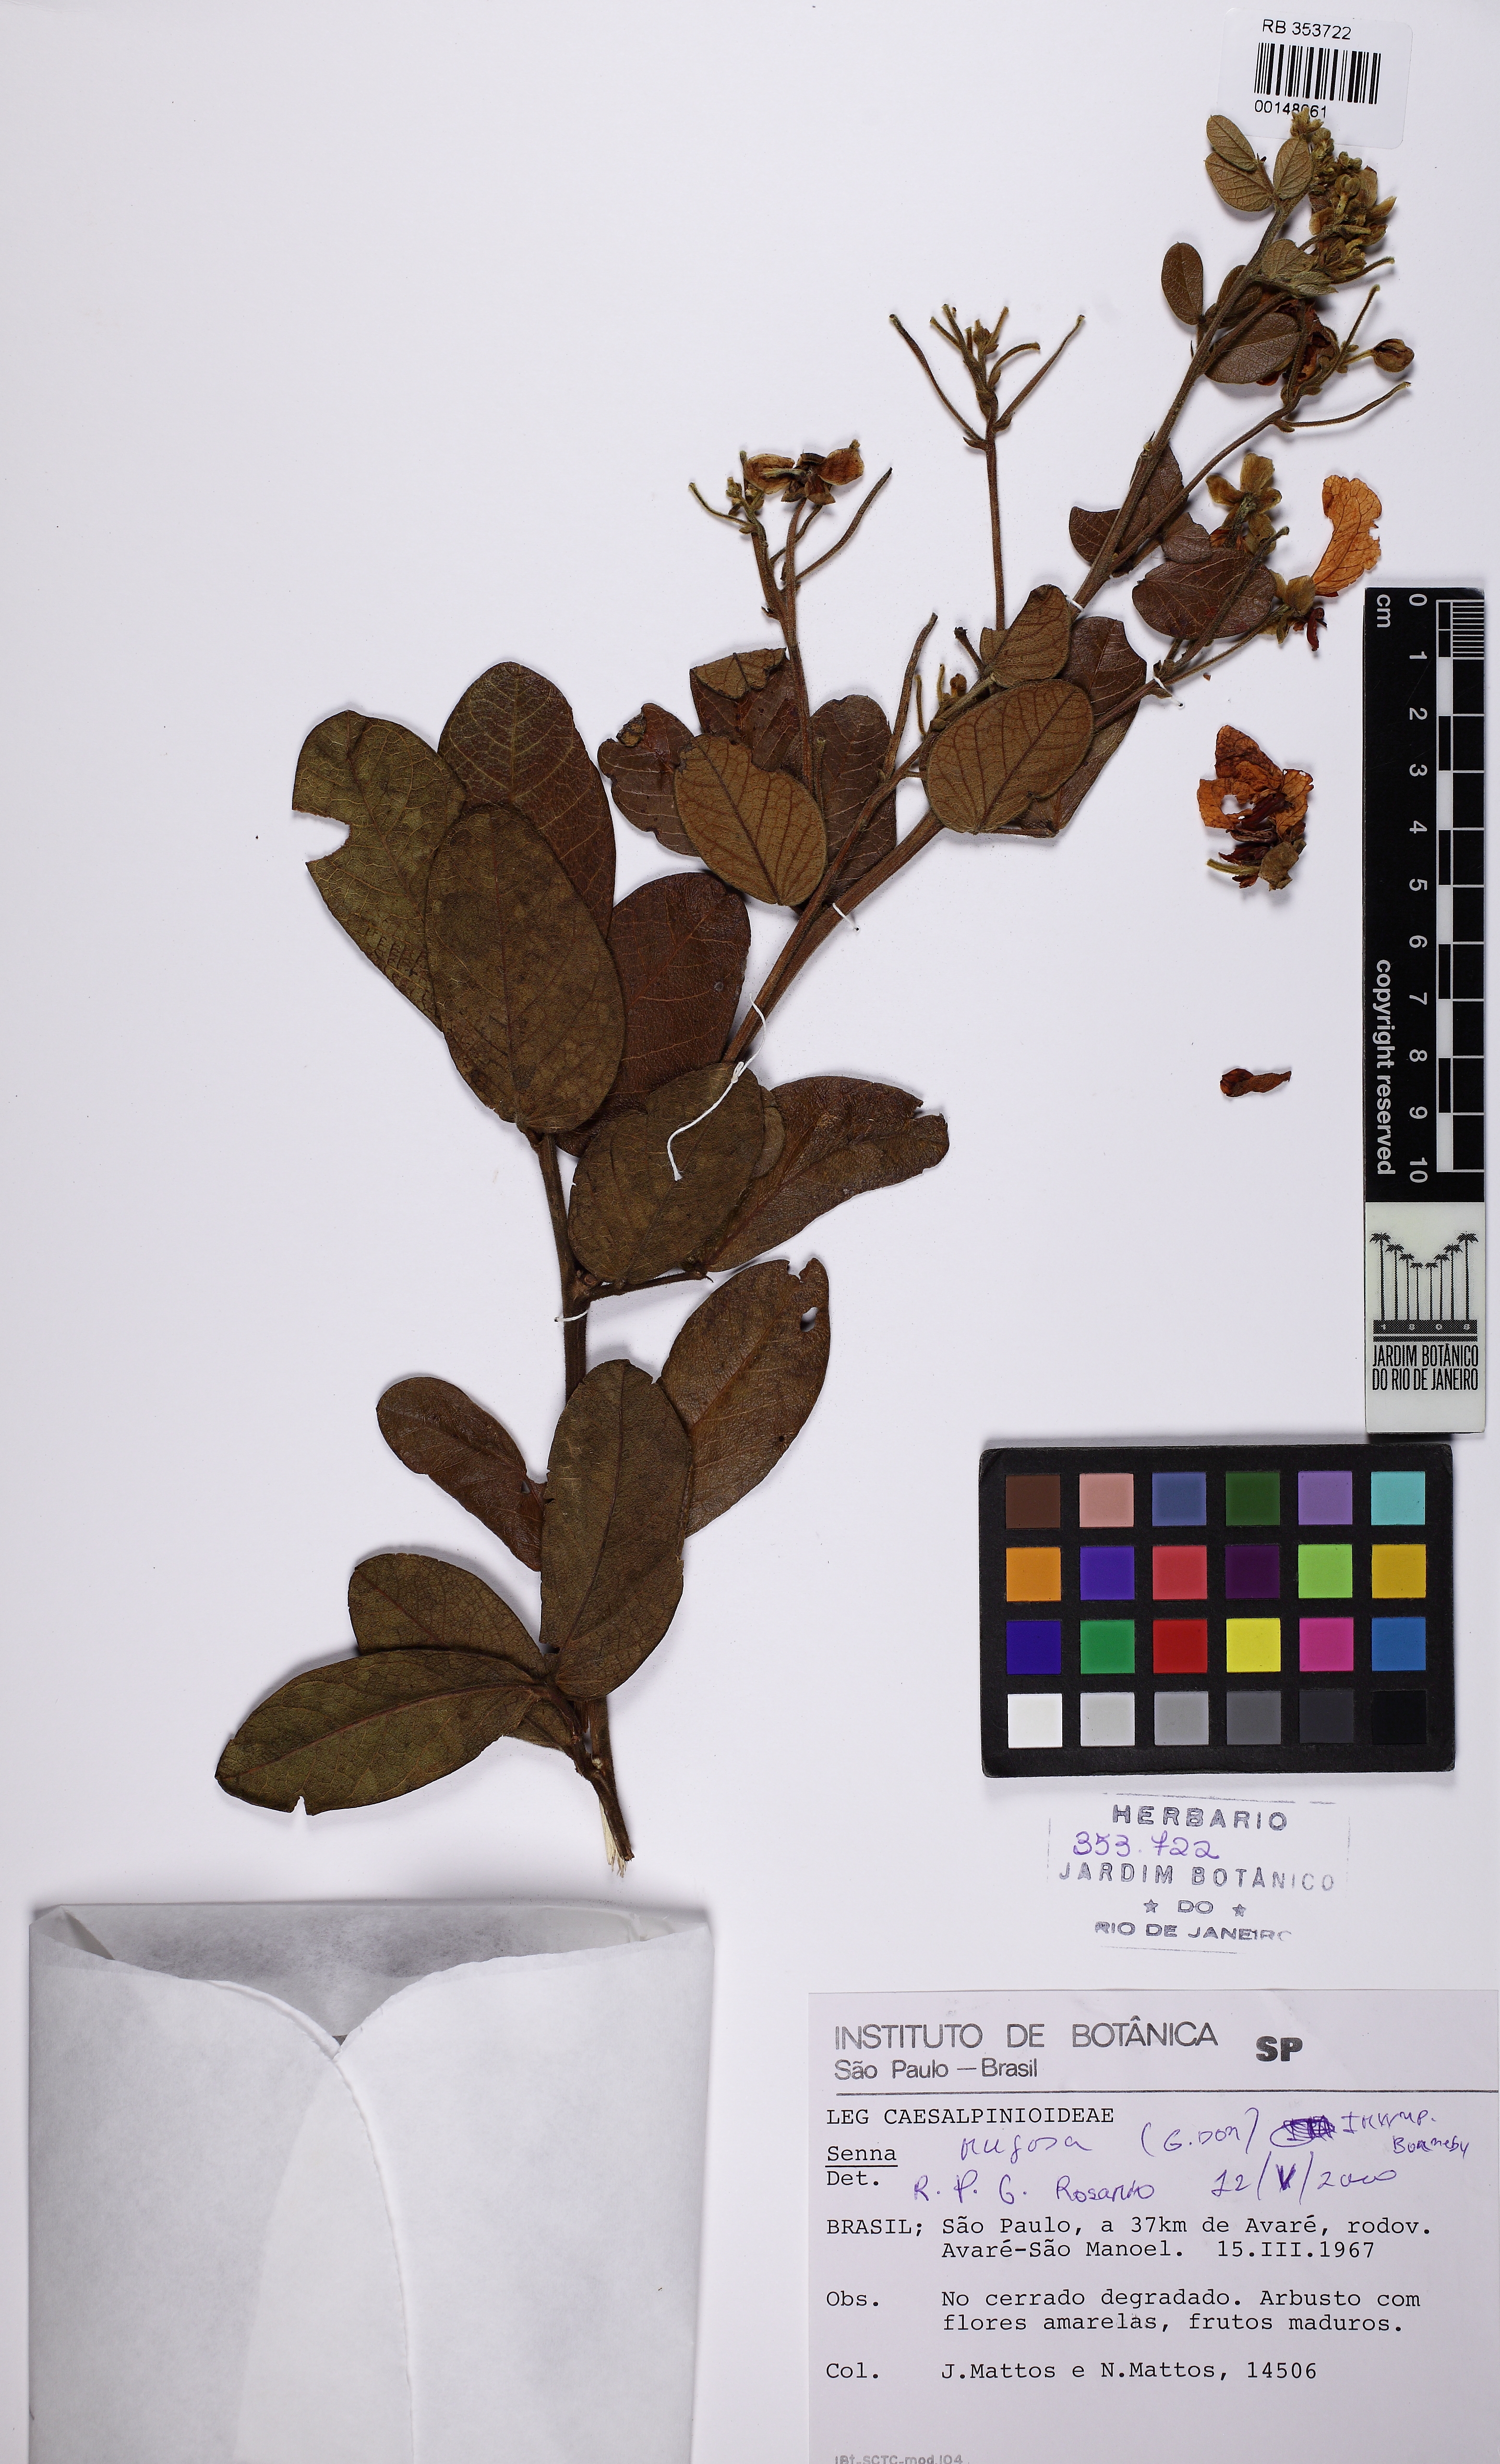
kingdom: Plantae
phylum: Tracheophyta
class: Magnoliopsida
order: Fabales
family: Fabaceae
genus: Senna
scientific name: Senna rugosa
